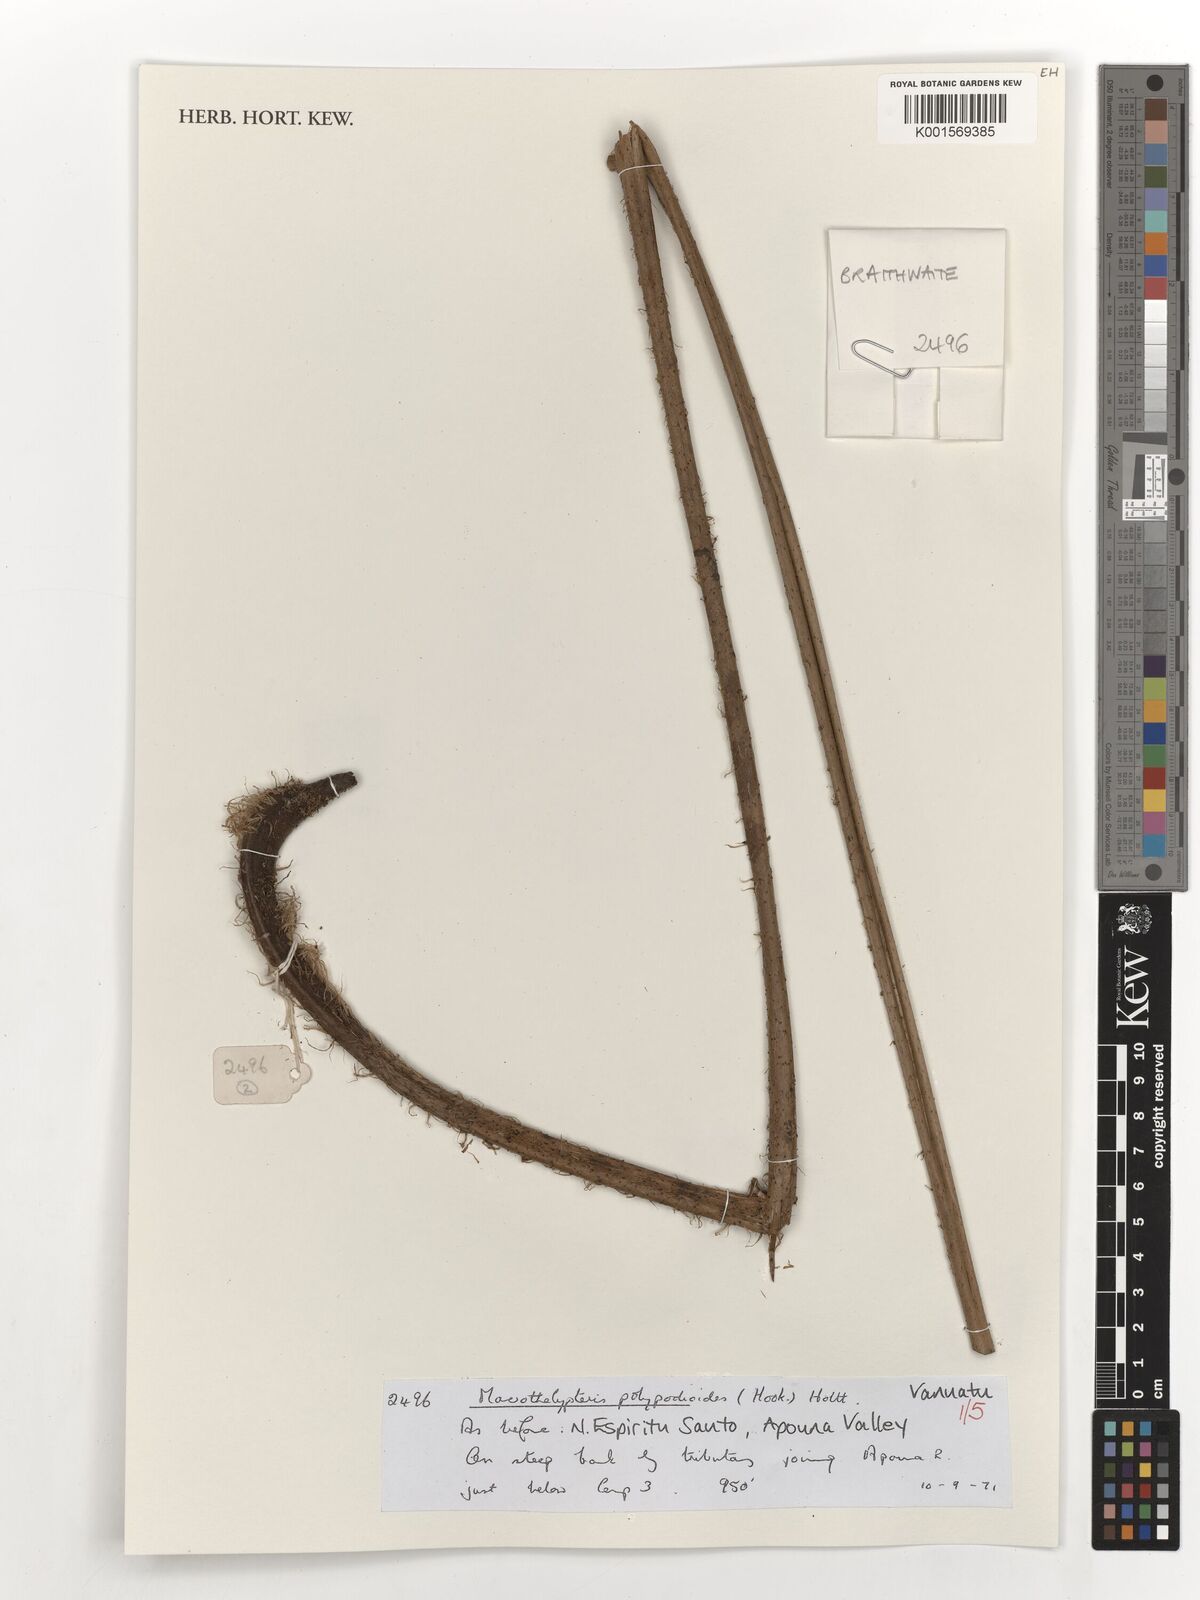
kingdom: Plantae
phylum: Tracheophyta
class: Polypodiopsida
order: Polypodiales
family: Thelypteridaceae
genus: Macrothelypteris
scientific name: Macrothelypteris polypodioides
